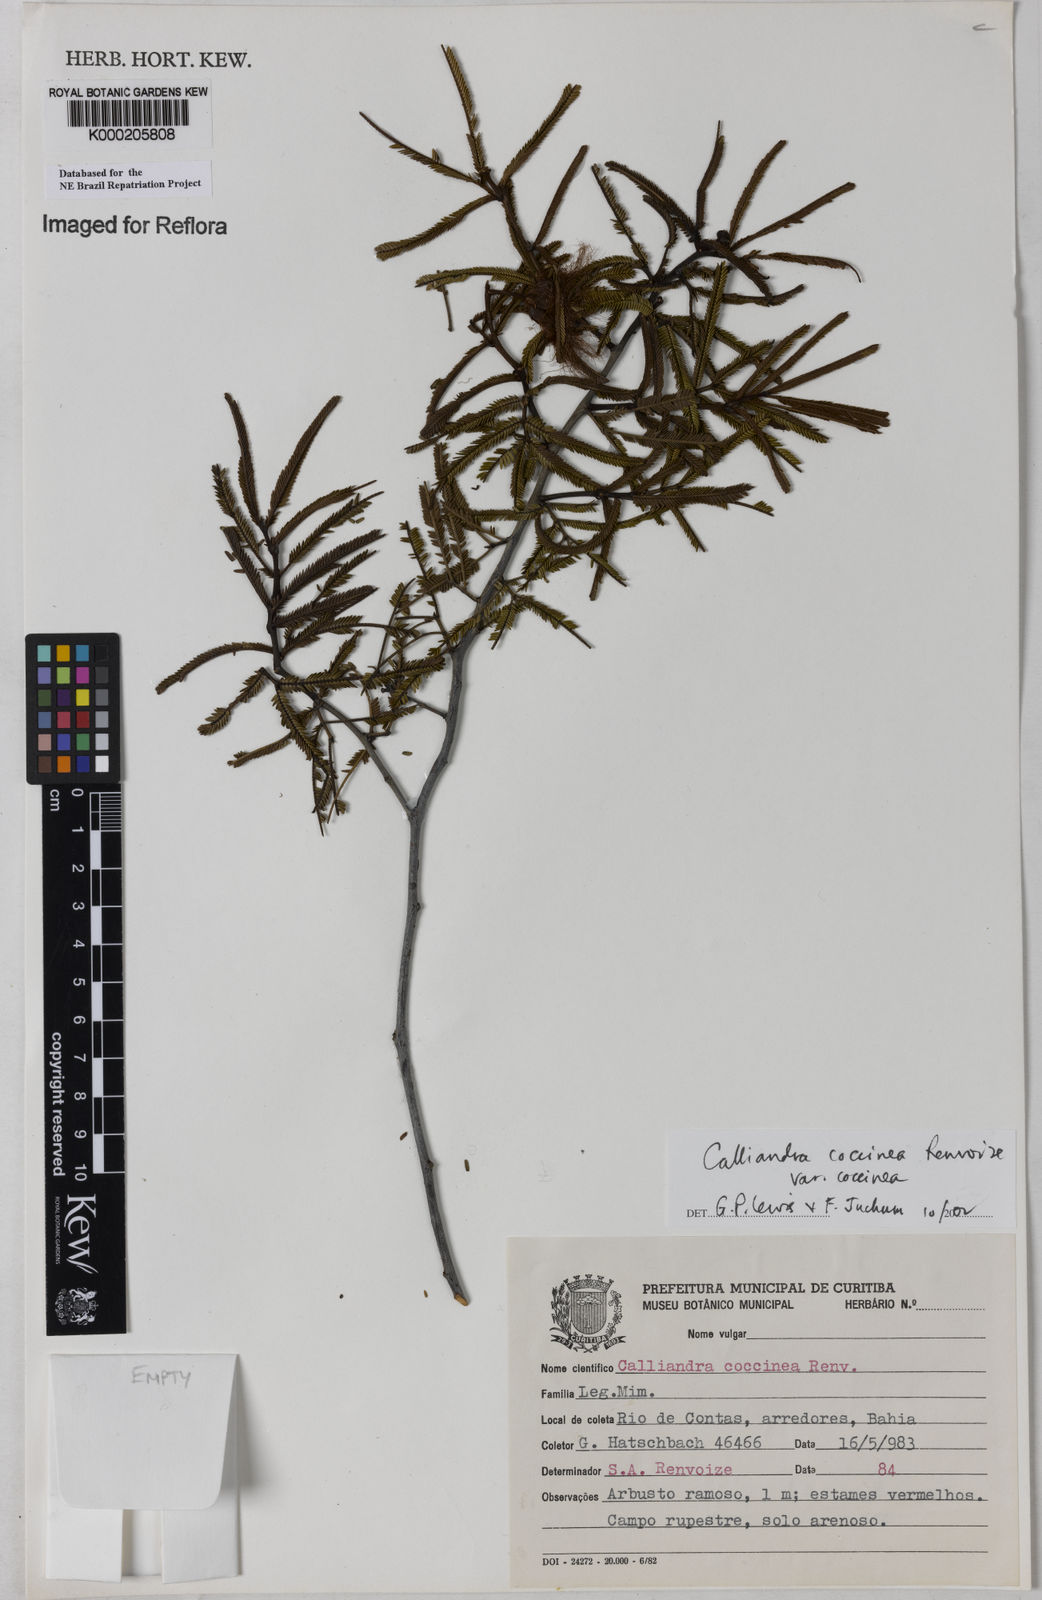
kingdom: Plantae
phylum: Tracheophyta
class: Magnoliopsida
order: Fabales
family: Fabaceae
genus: Calliandra
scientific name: Calliandra coccinea
